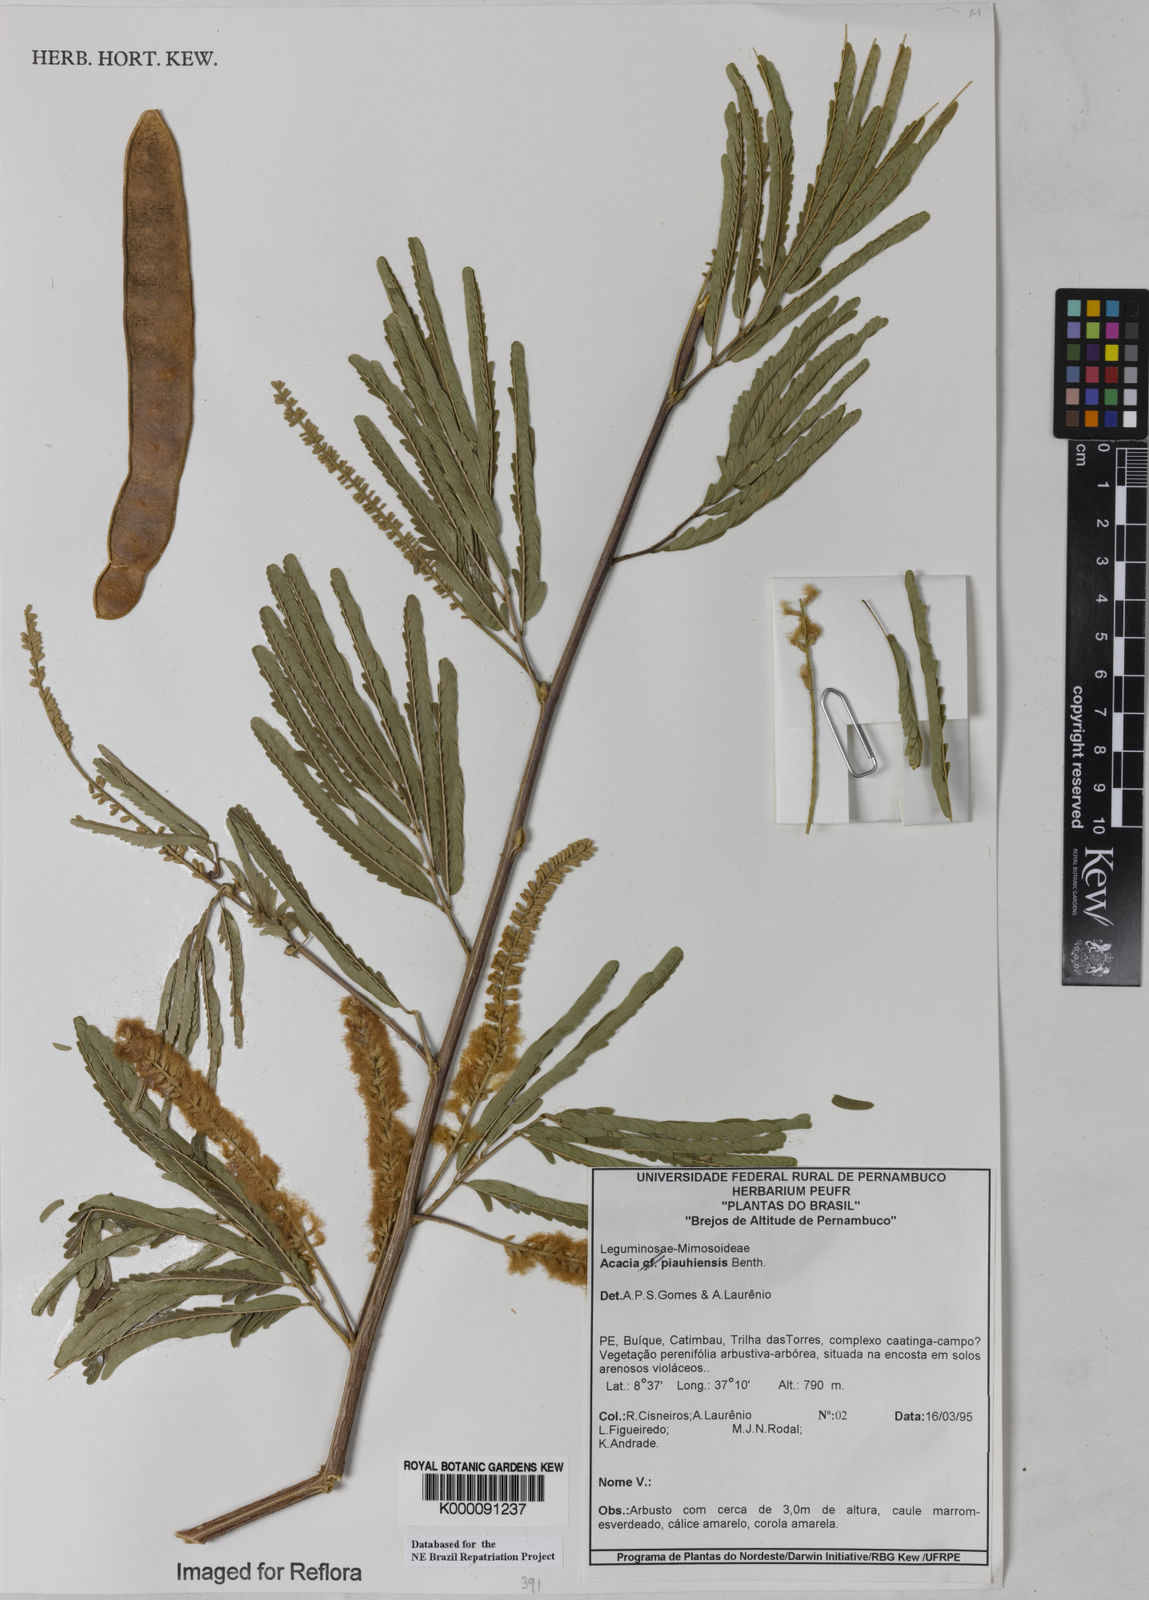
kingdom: Plantae
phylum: Tracheophyta
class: Magnoliopsida
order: Fabales
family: Fabaceae
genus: Senegalia
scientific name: Senegalia piauhiensis
